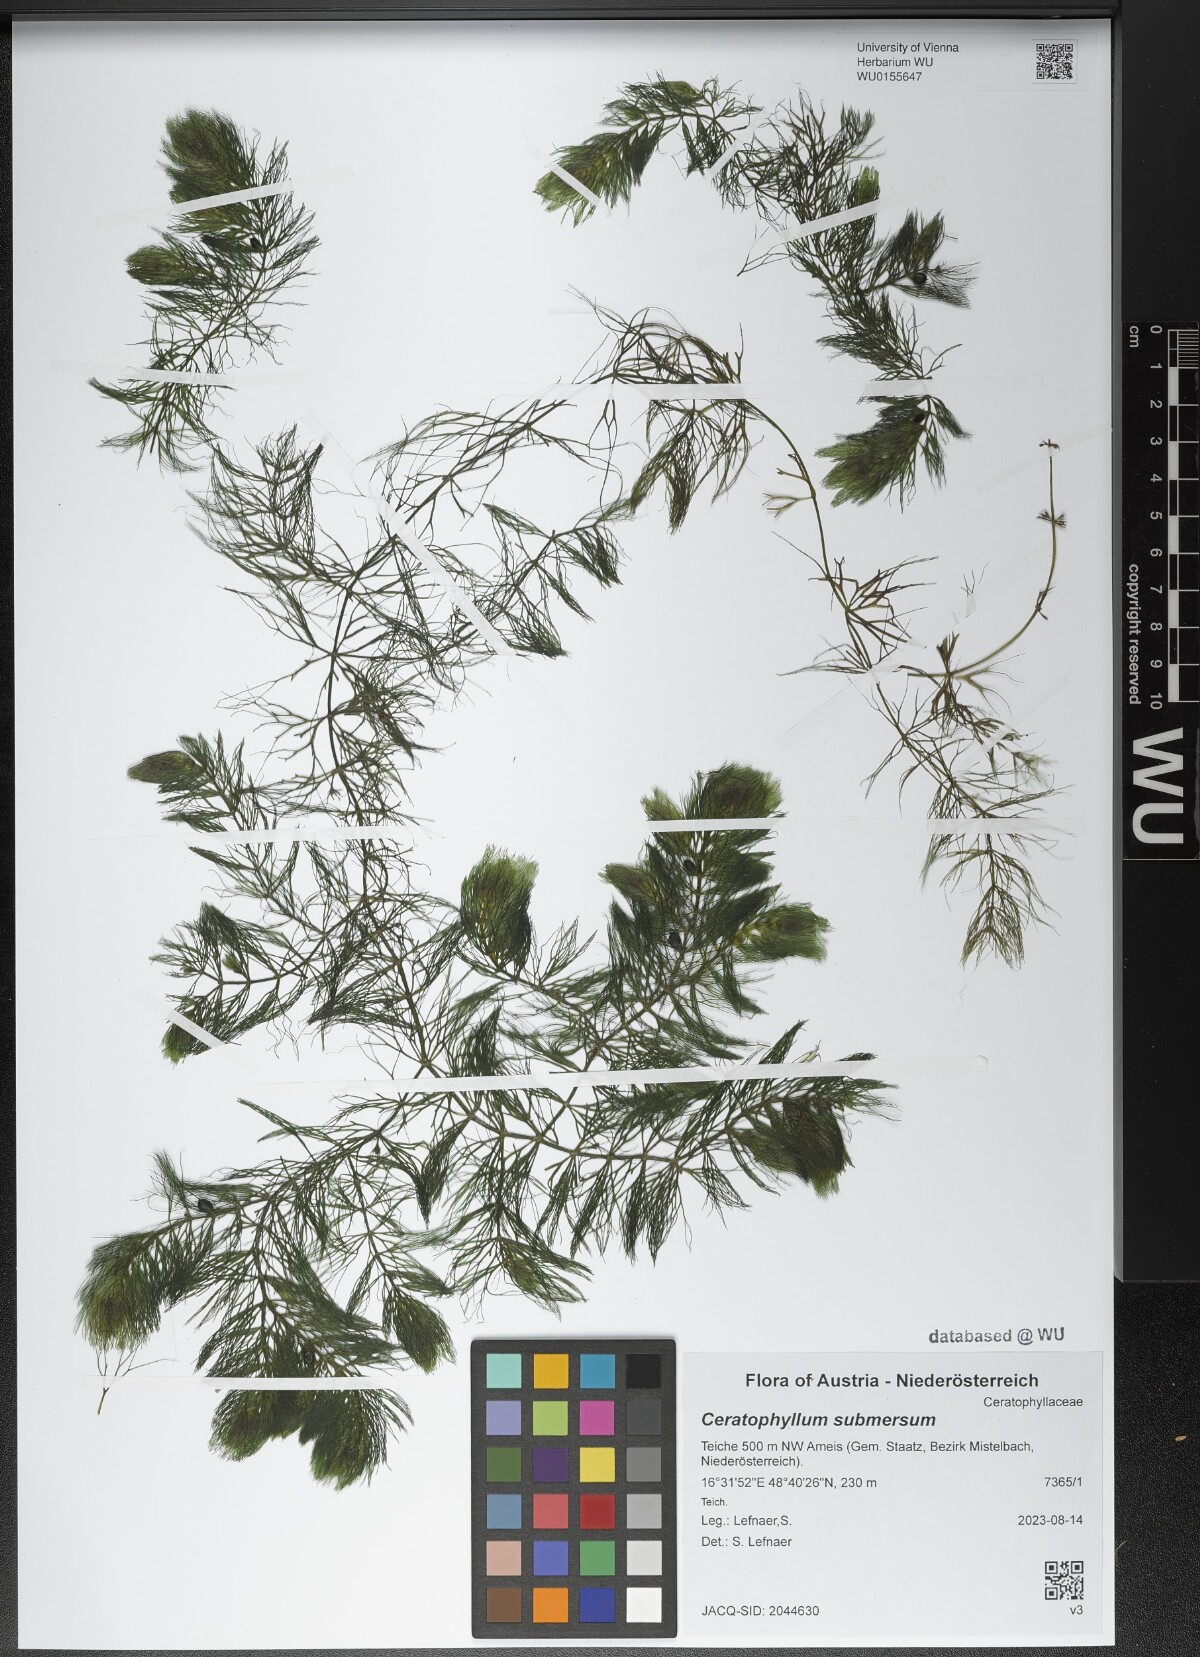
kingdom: Plantae
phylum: Tracheophyta
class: Magnoliopsida
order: Ceratophyllales
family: Ceratophyllaceae
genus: Ceratophyllum
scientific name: Ceratophyllum submersum
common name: Soft hornwort
